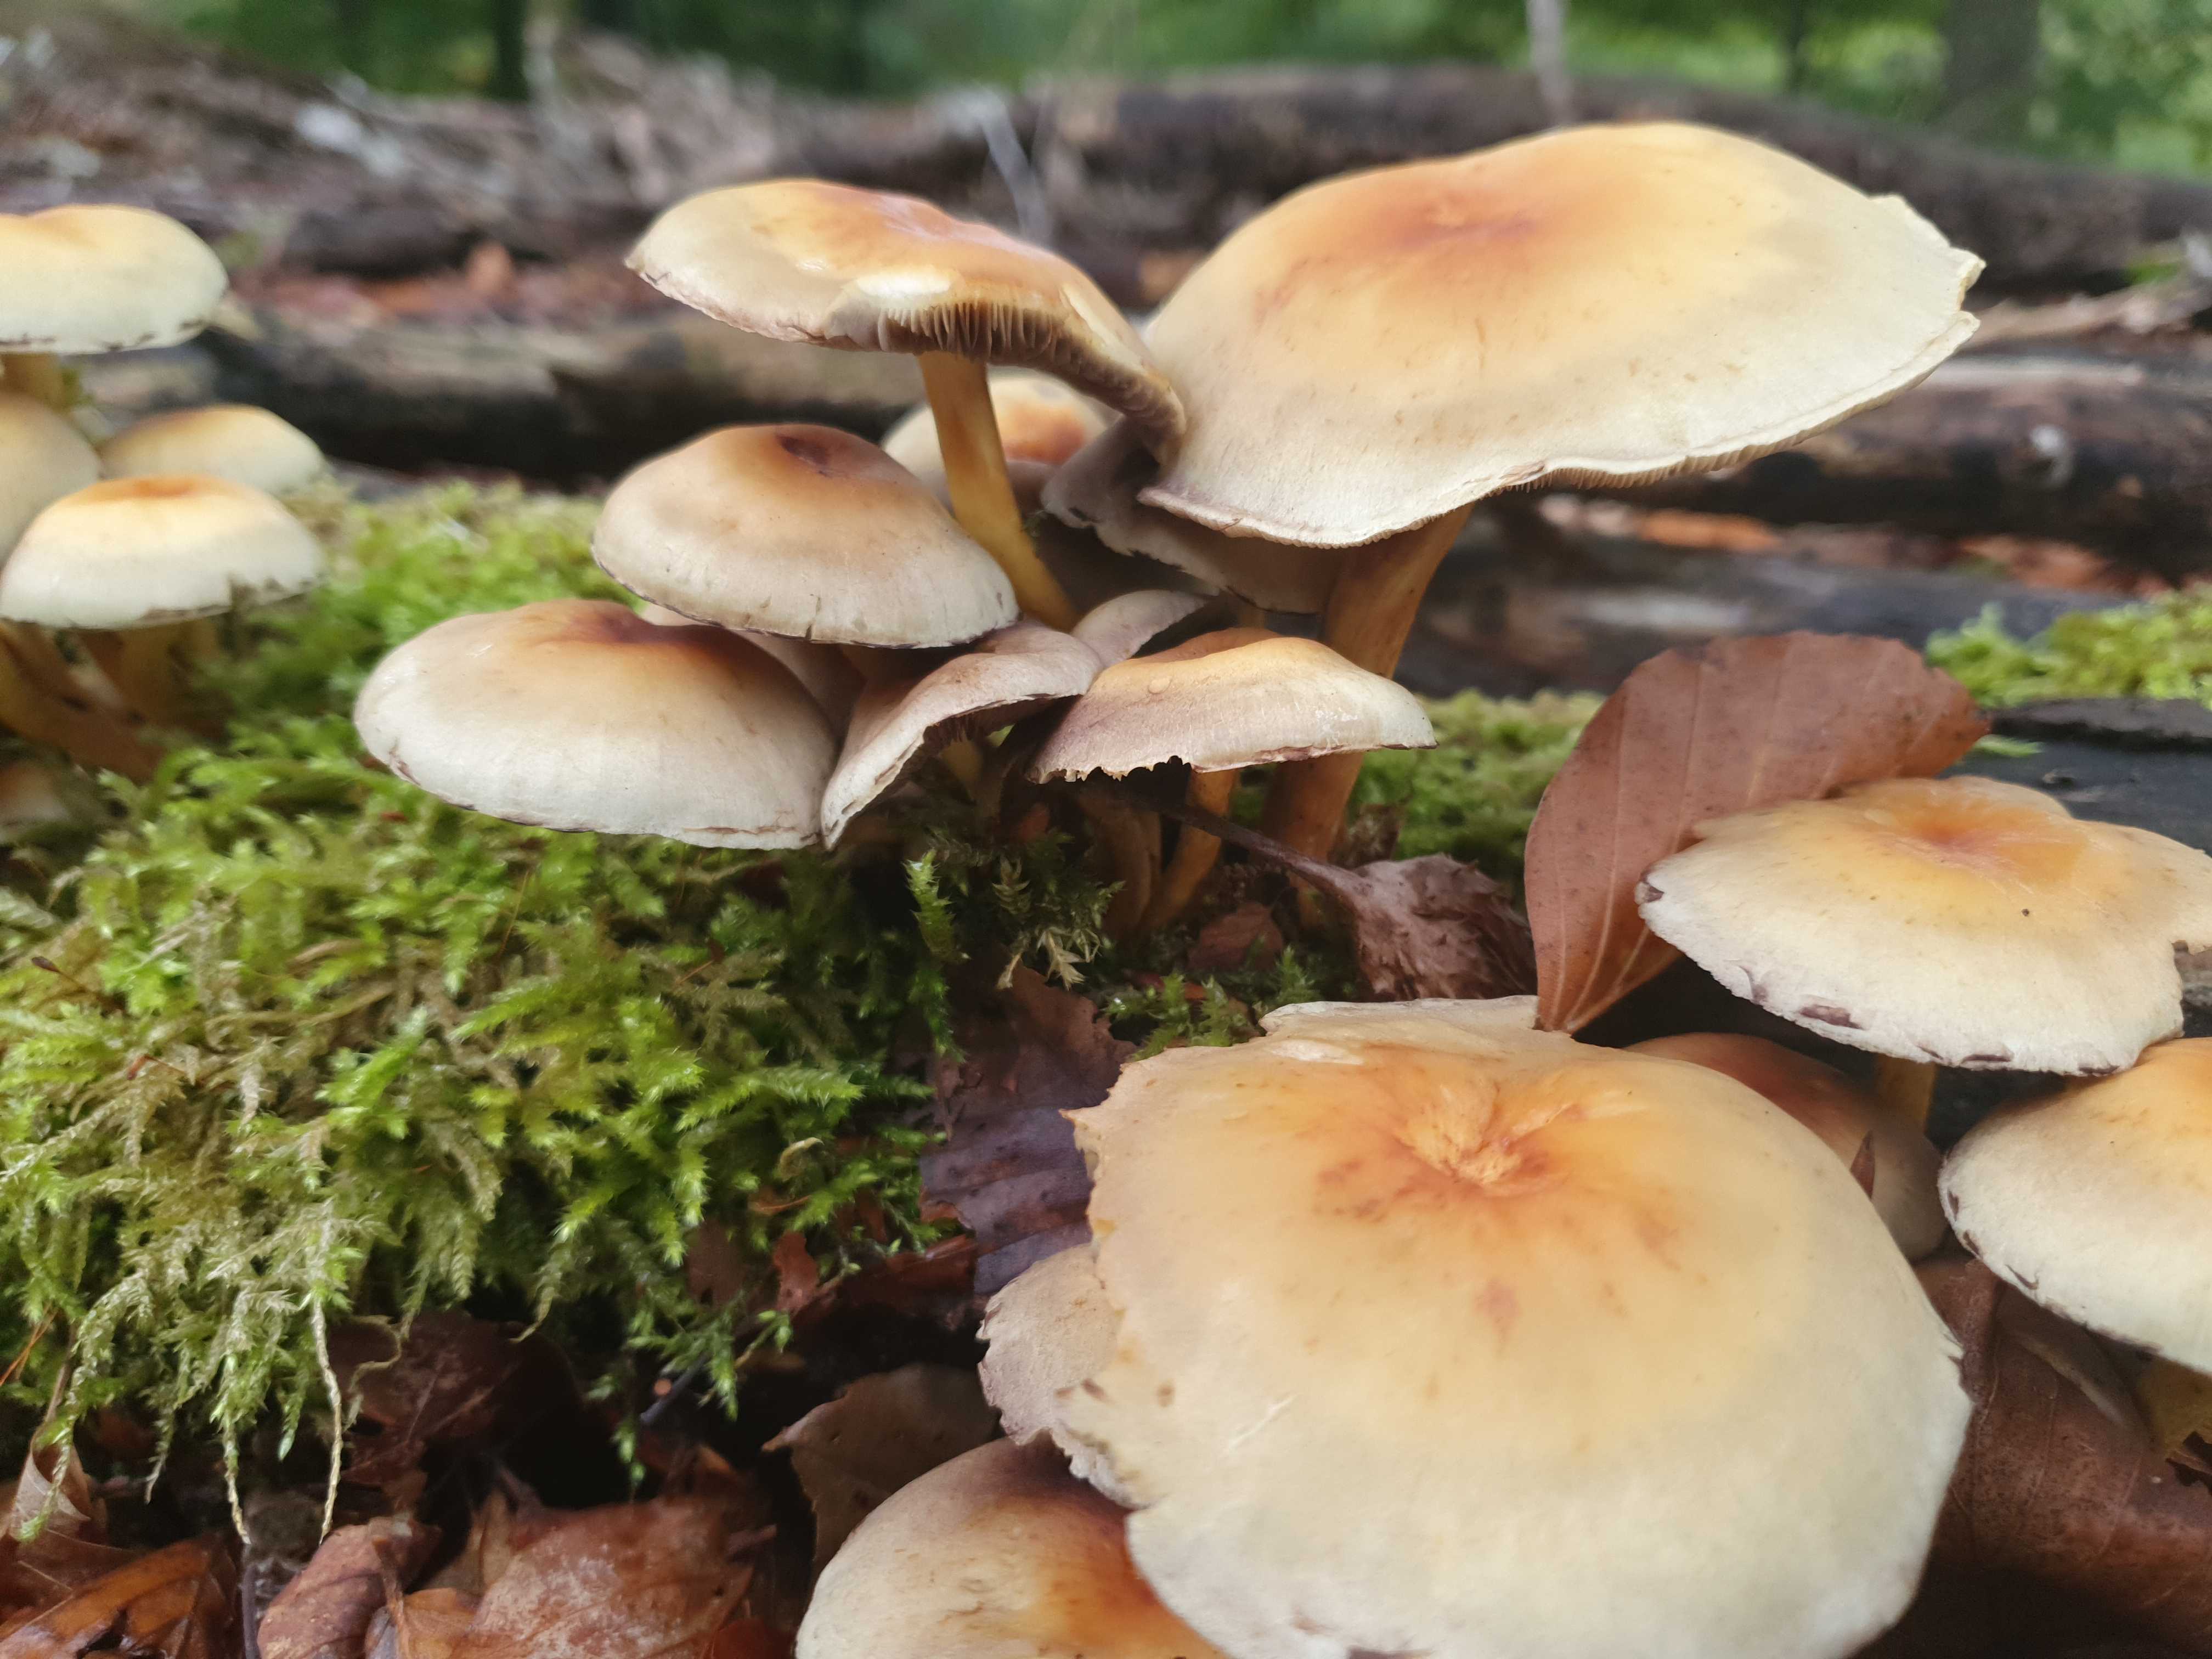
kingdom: Fungi
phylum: Basidiomycota
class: Agaricomycetes
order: Agaricales
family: Strophariaceae
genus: Hypholoma
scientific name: Hypholoma fasciculare
